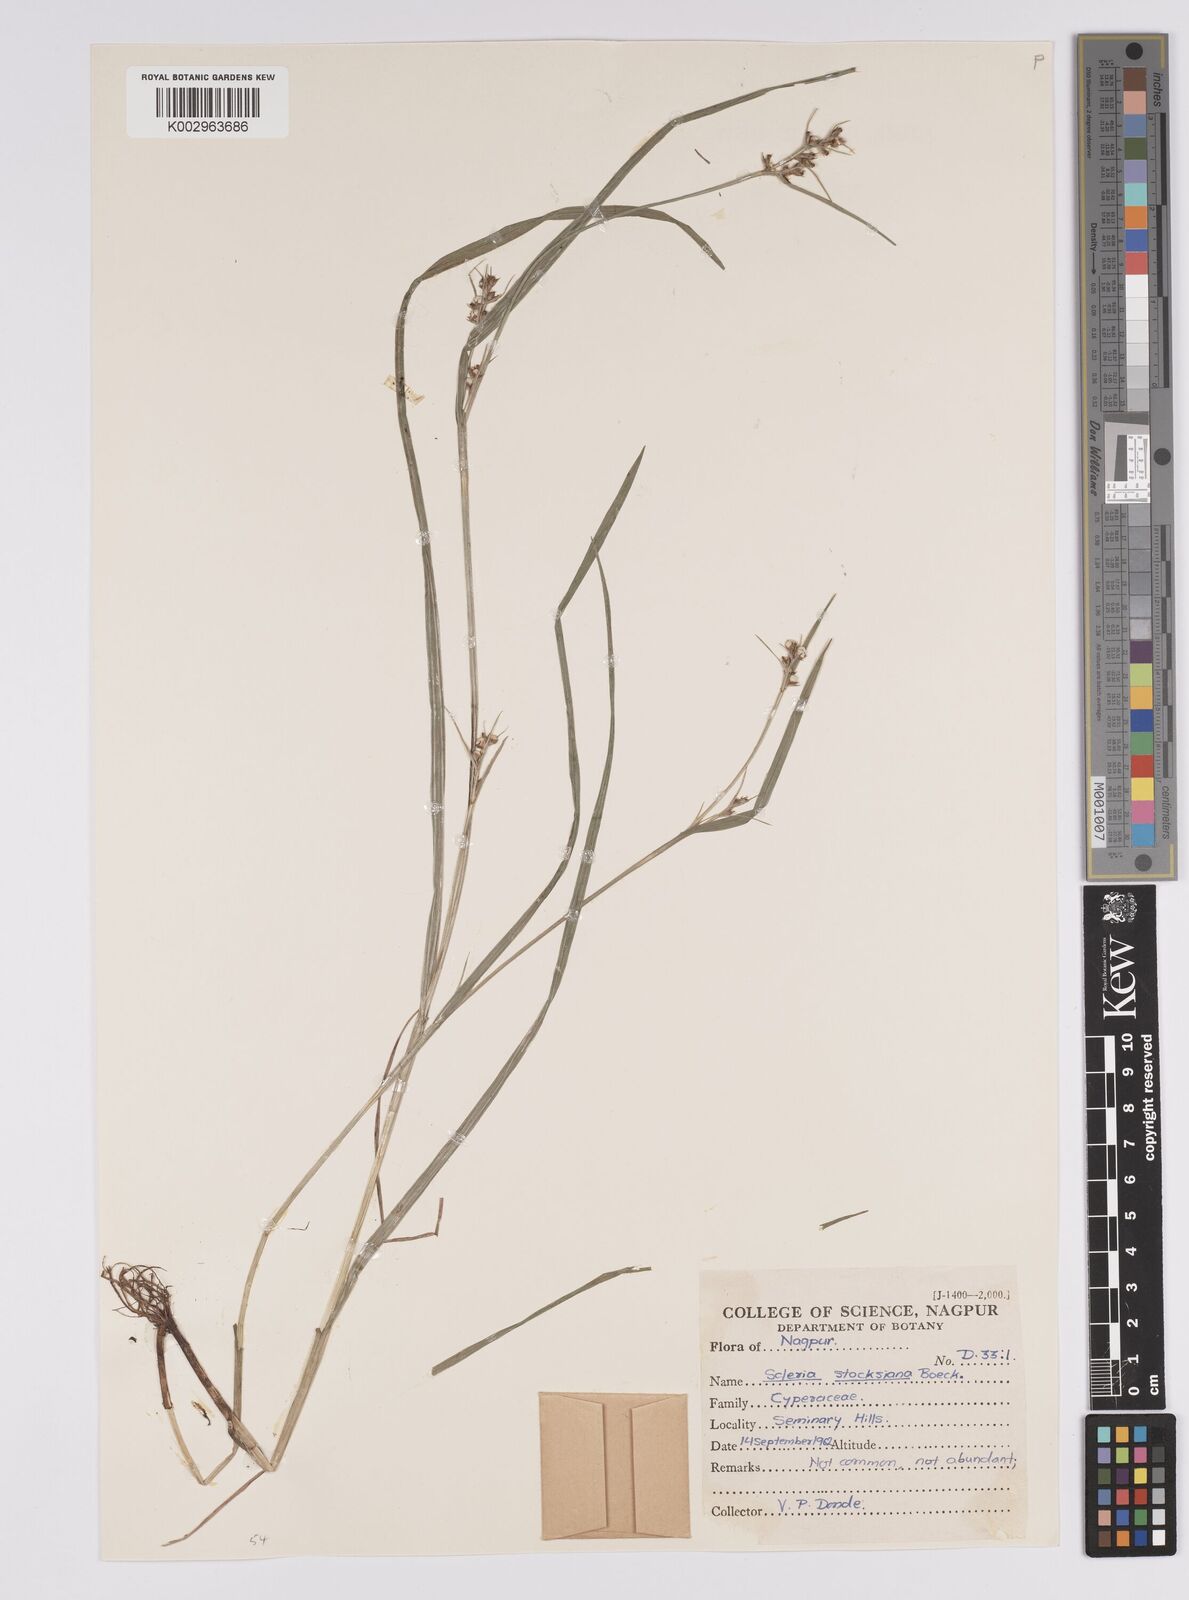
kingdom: Plantae
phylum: Tracheophyta
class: Liliopsida
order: Poales
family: Cyperaceae
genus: Scleria
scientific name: Scleria stocksiana
